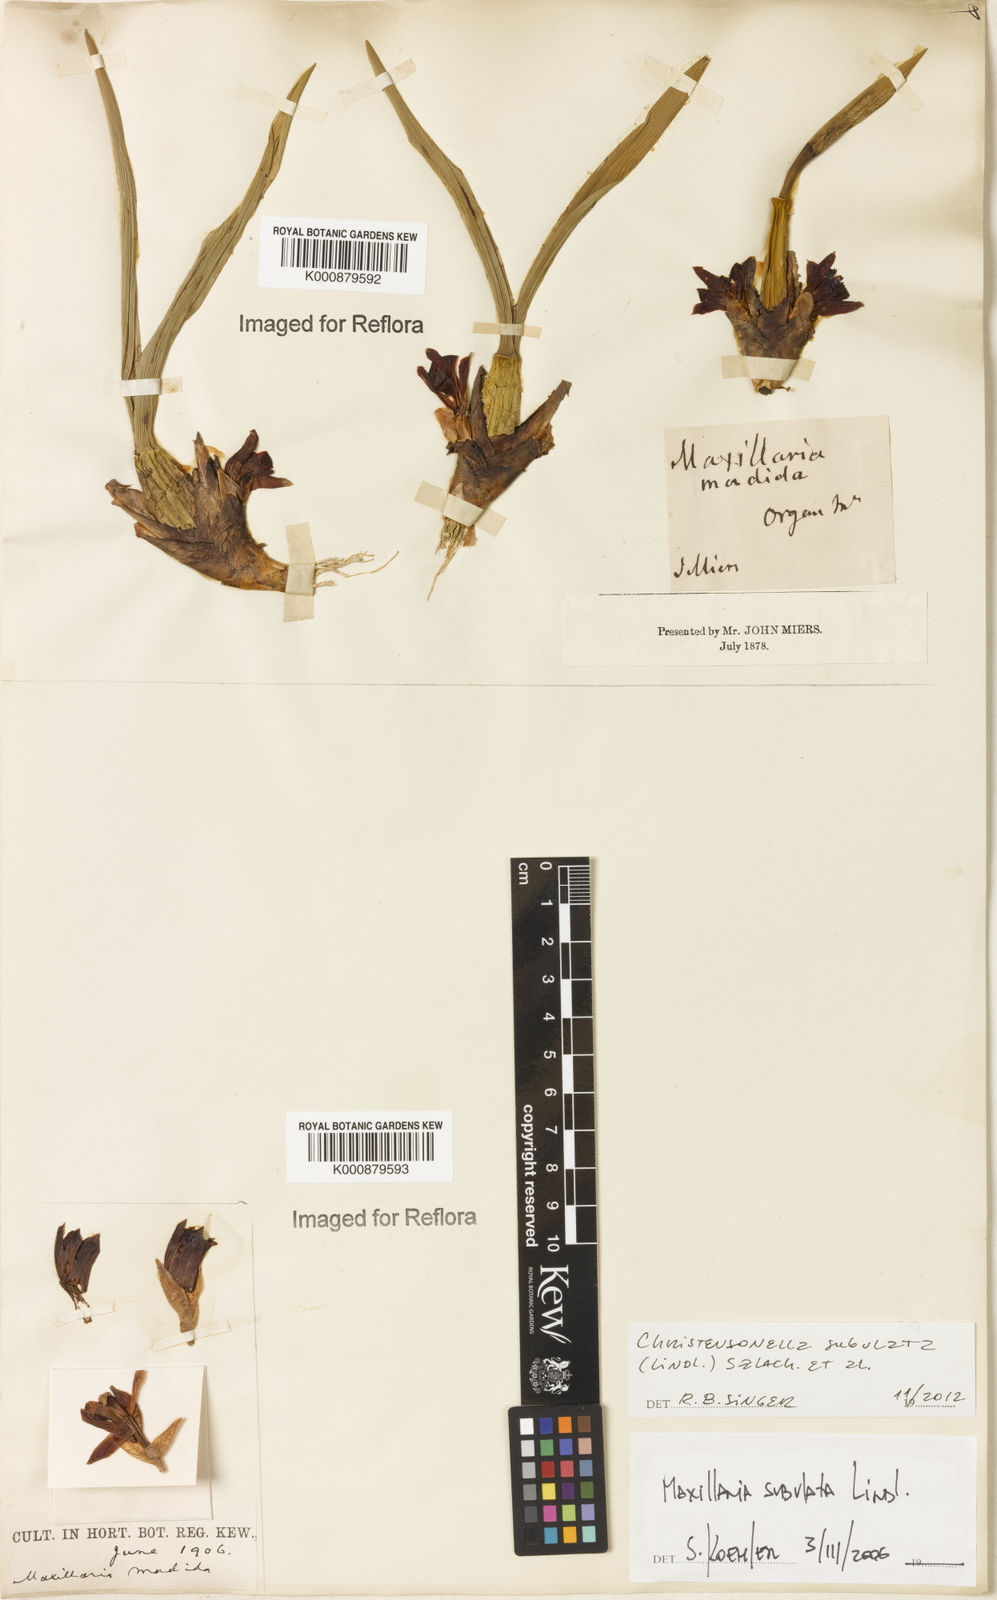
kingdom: Plantae
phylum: Tracheophyta
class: Liliopsida
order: Asparagales
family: Orchidaceae
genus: Maxillaria
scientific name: Maxillaria subulata
